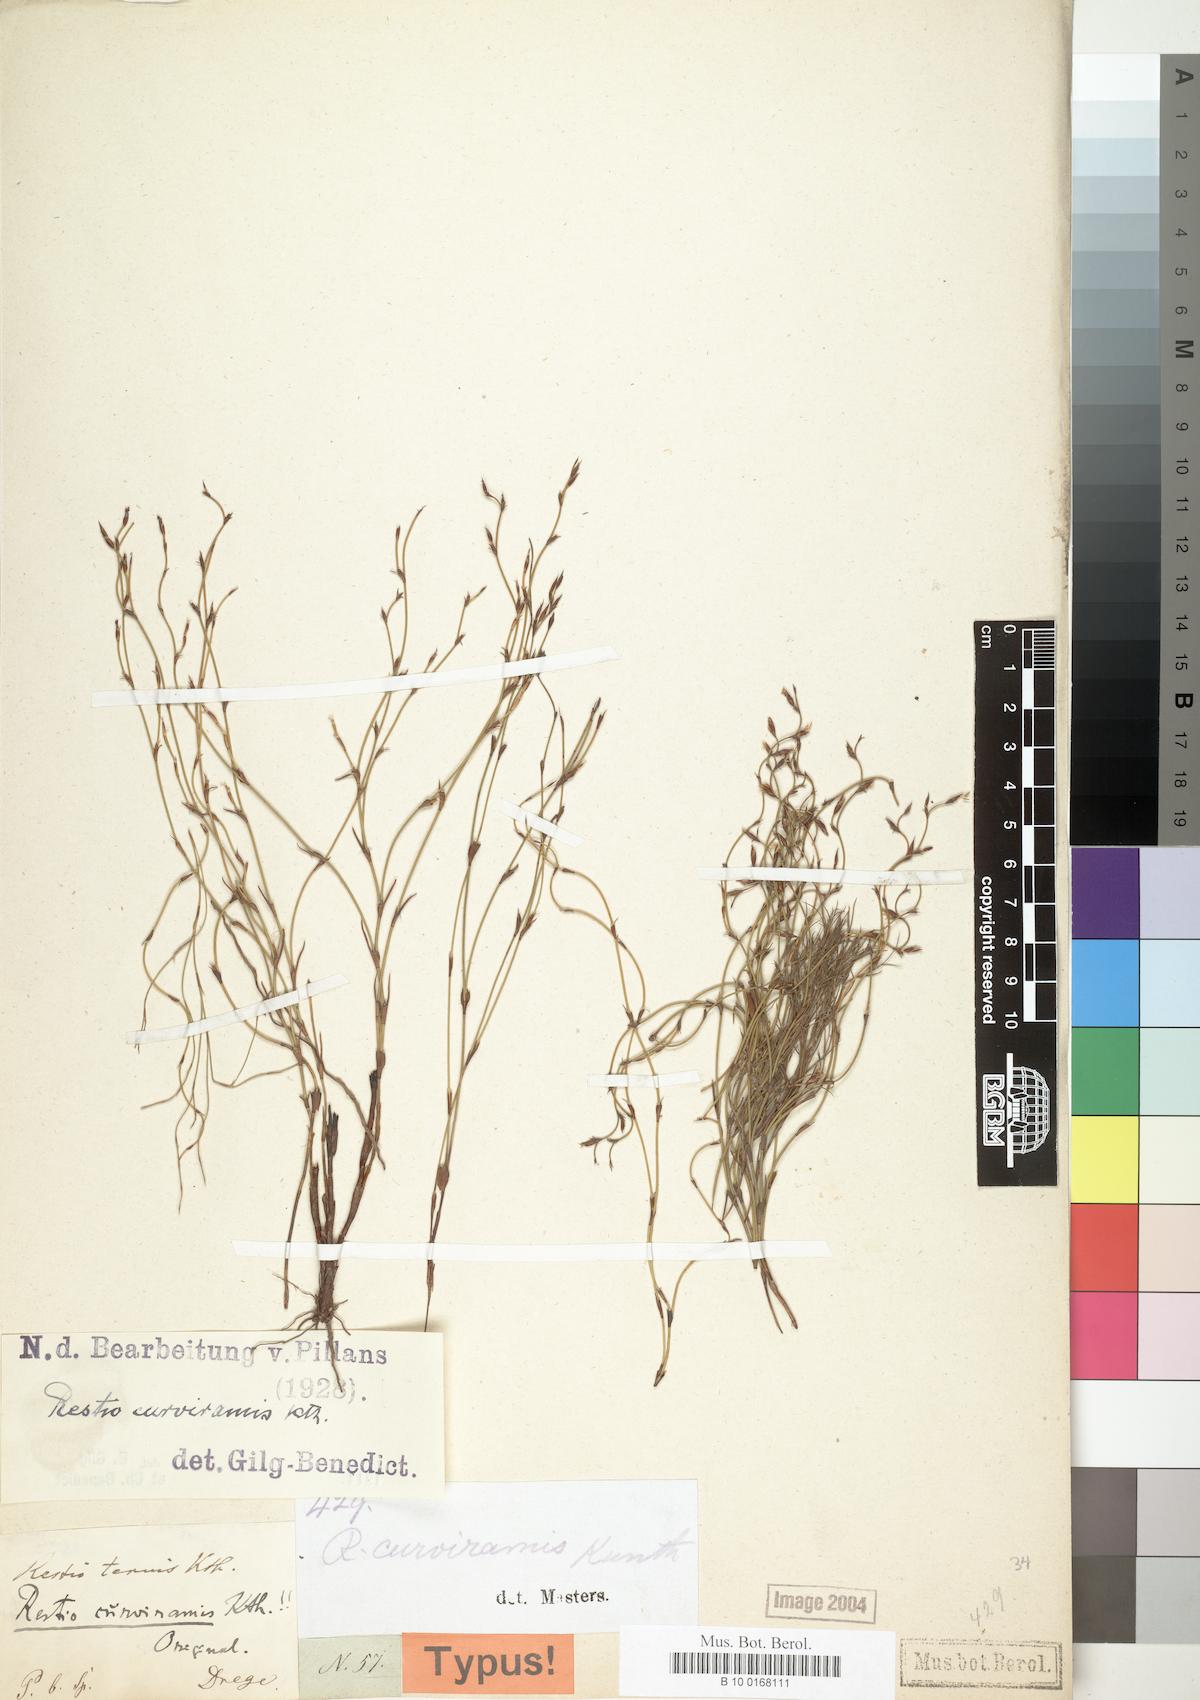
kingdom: Plantae
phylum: Tracheophyta
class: Liliopsida
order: Poales
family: Restionaceae
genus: Restio
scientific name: Restio curviramis
